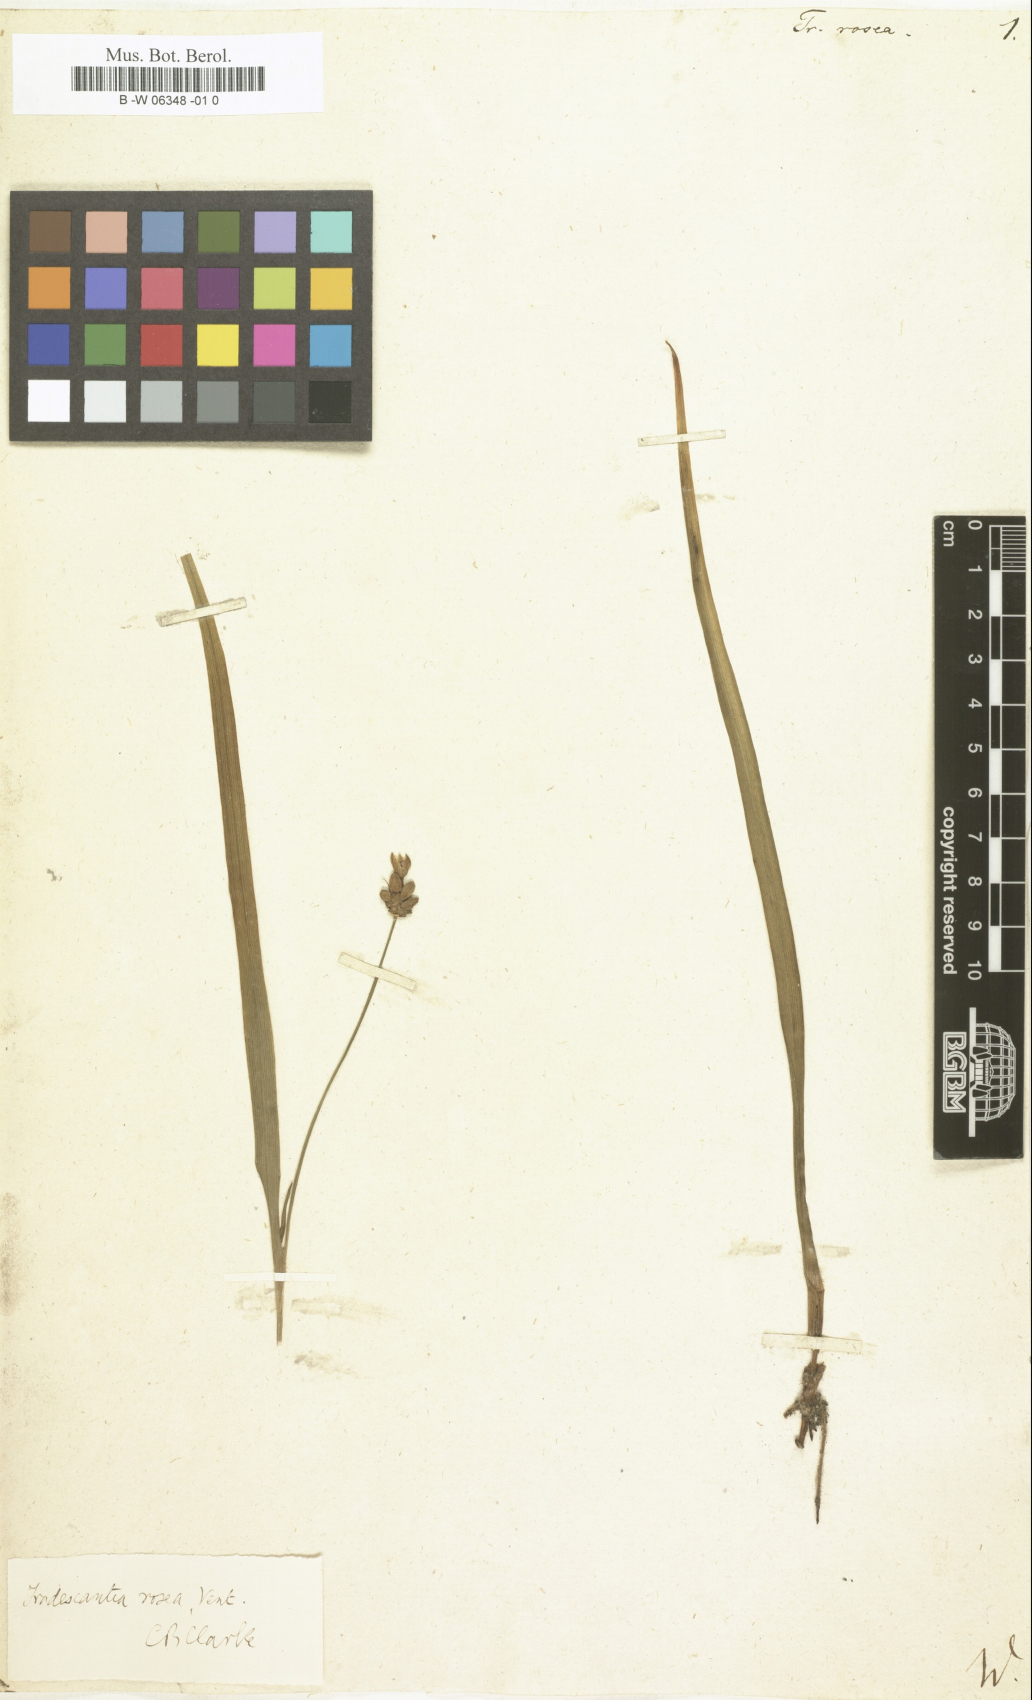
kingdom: Plantae
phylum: Tracheophyta
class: Liliopsida
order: Commelinales
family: Commelinaceae
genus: Callisia
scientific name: Callisia rosea
